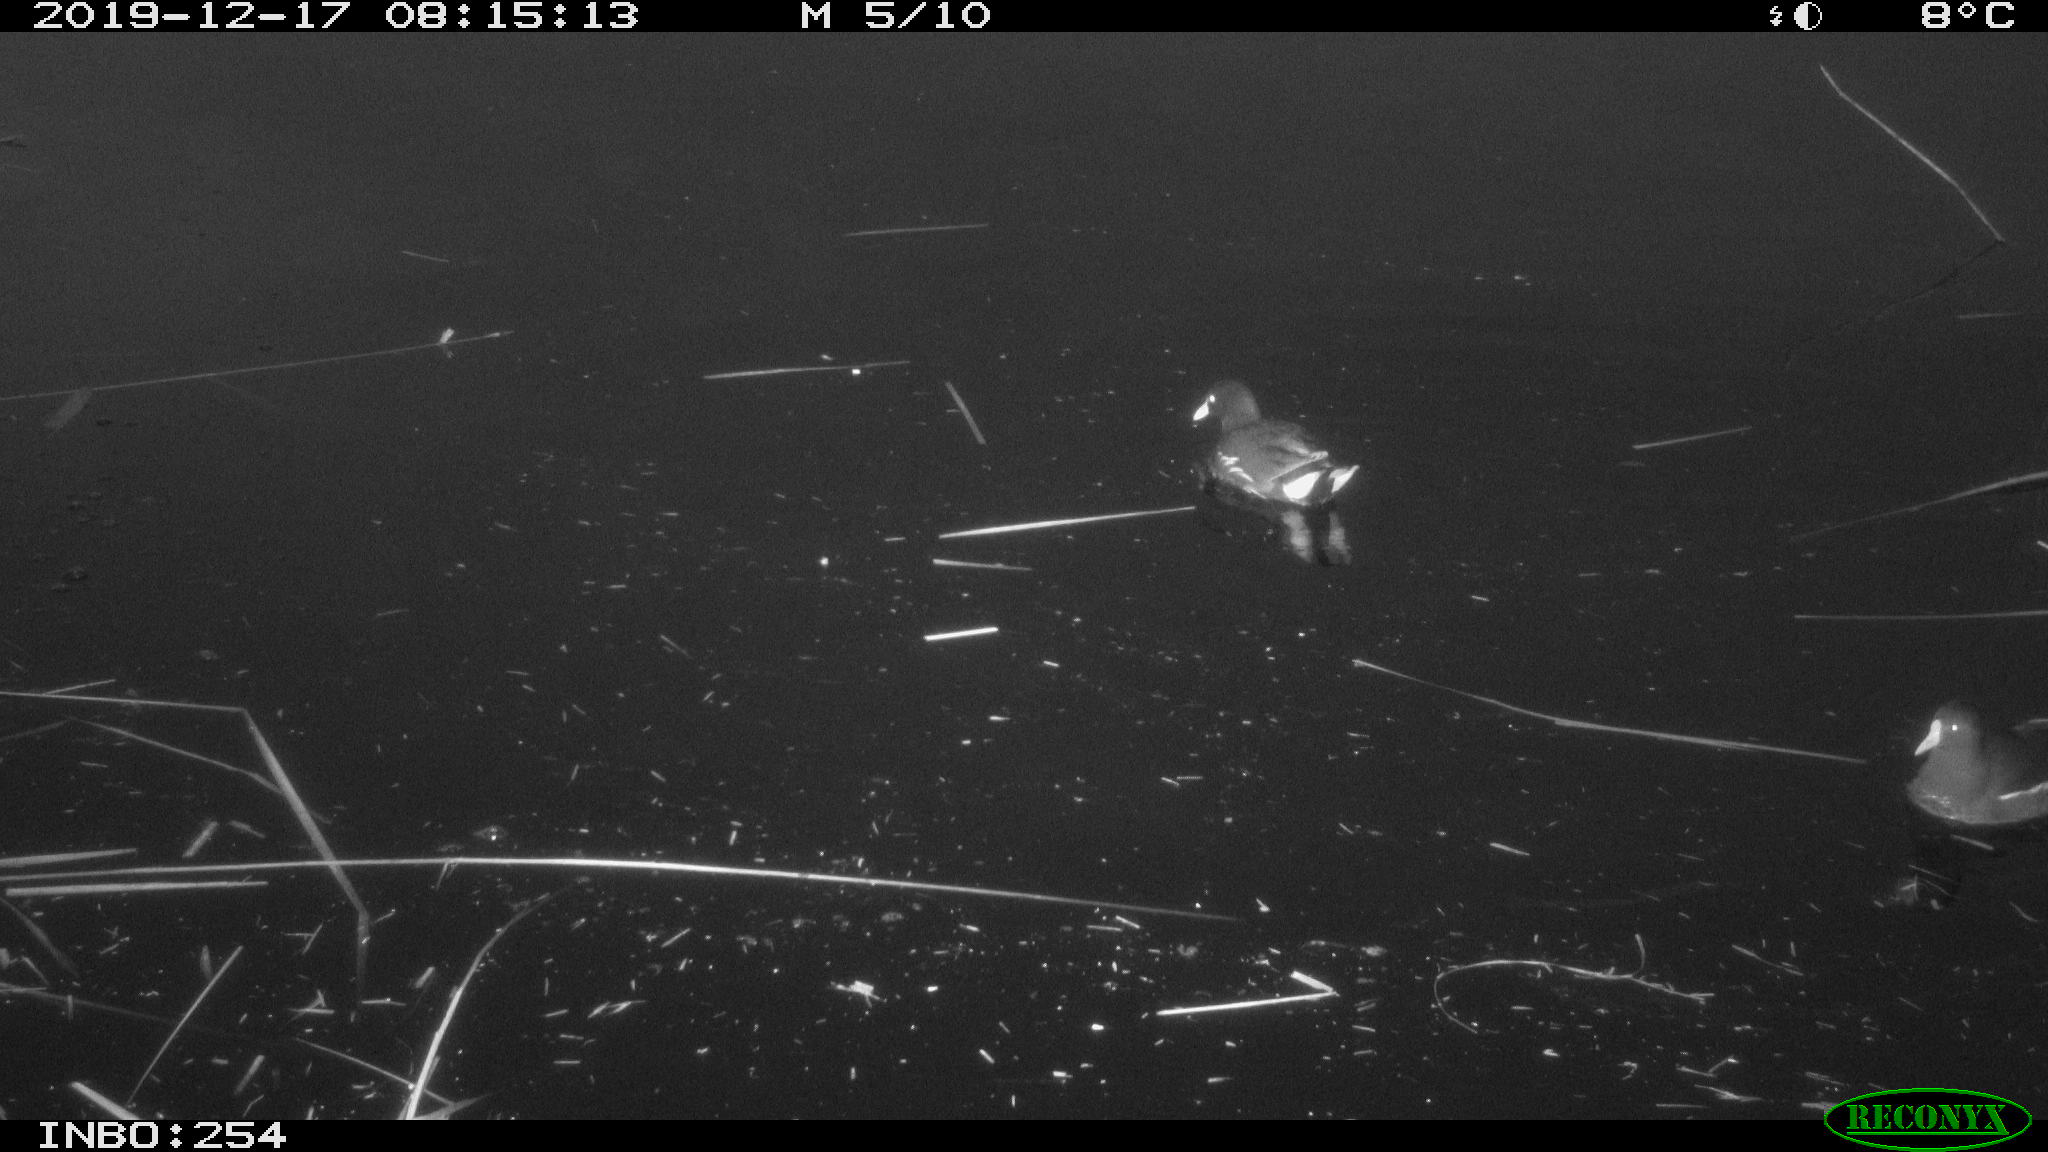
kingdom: Animalia
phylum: Chordata
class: Aves
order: Gruiformes
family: Rallidae
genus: Gallinula
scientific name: Gallinula chloropus
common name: Common moorhen
